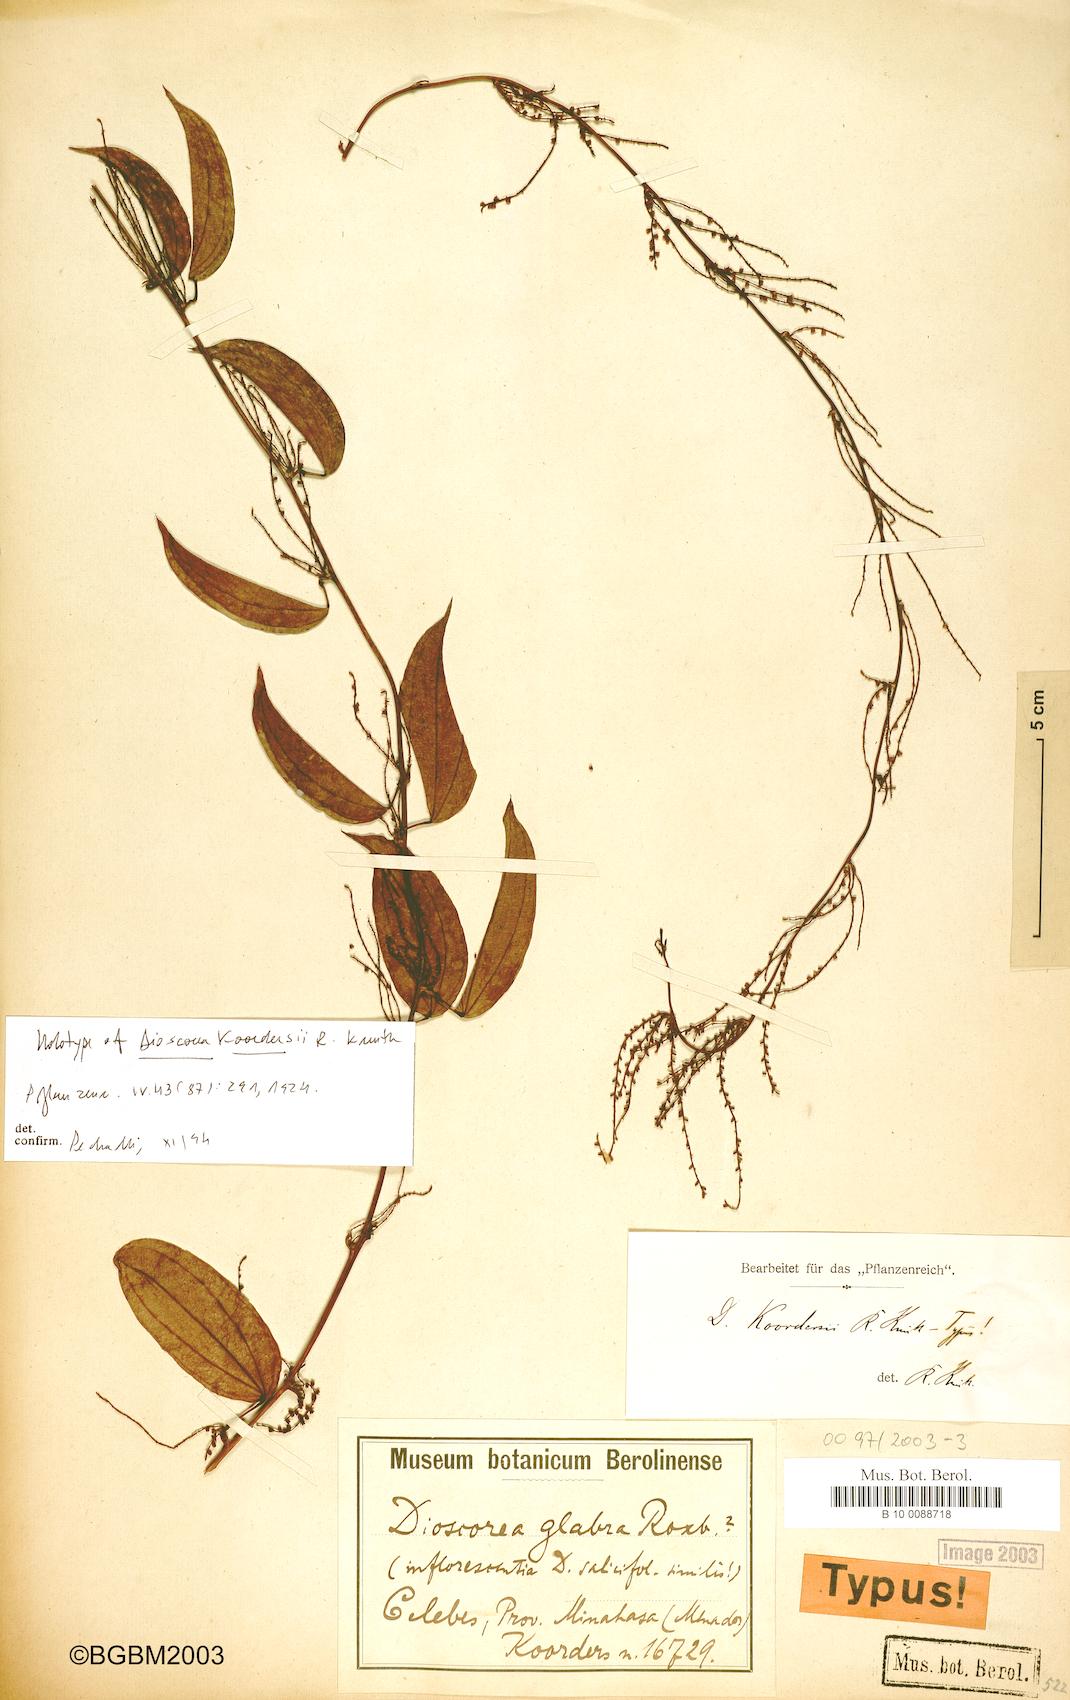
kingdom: Plantae
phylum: Tracheophyta
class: Liliopsida
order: Dioscoreales
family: Dioscoreaceae
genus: Dioscorea
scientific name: Dioscorea filiformis
